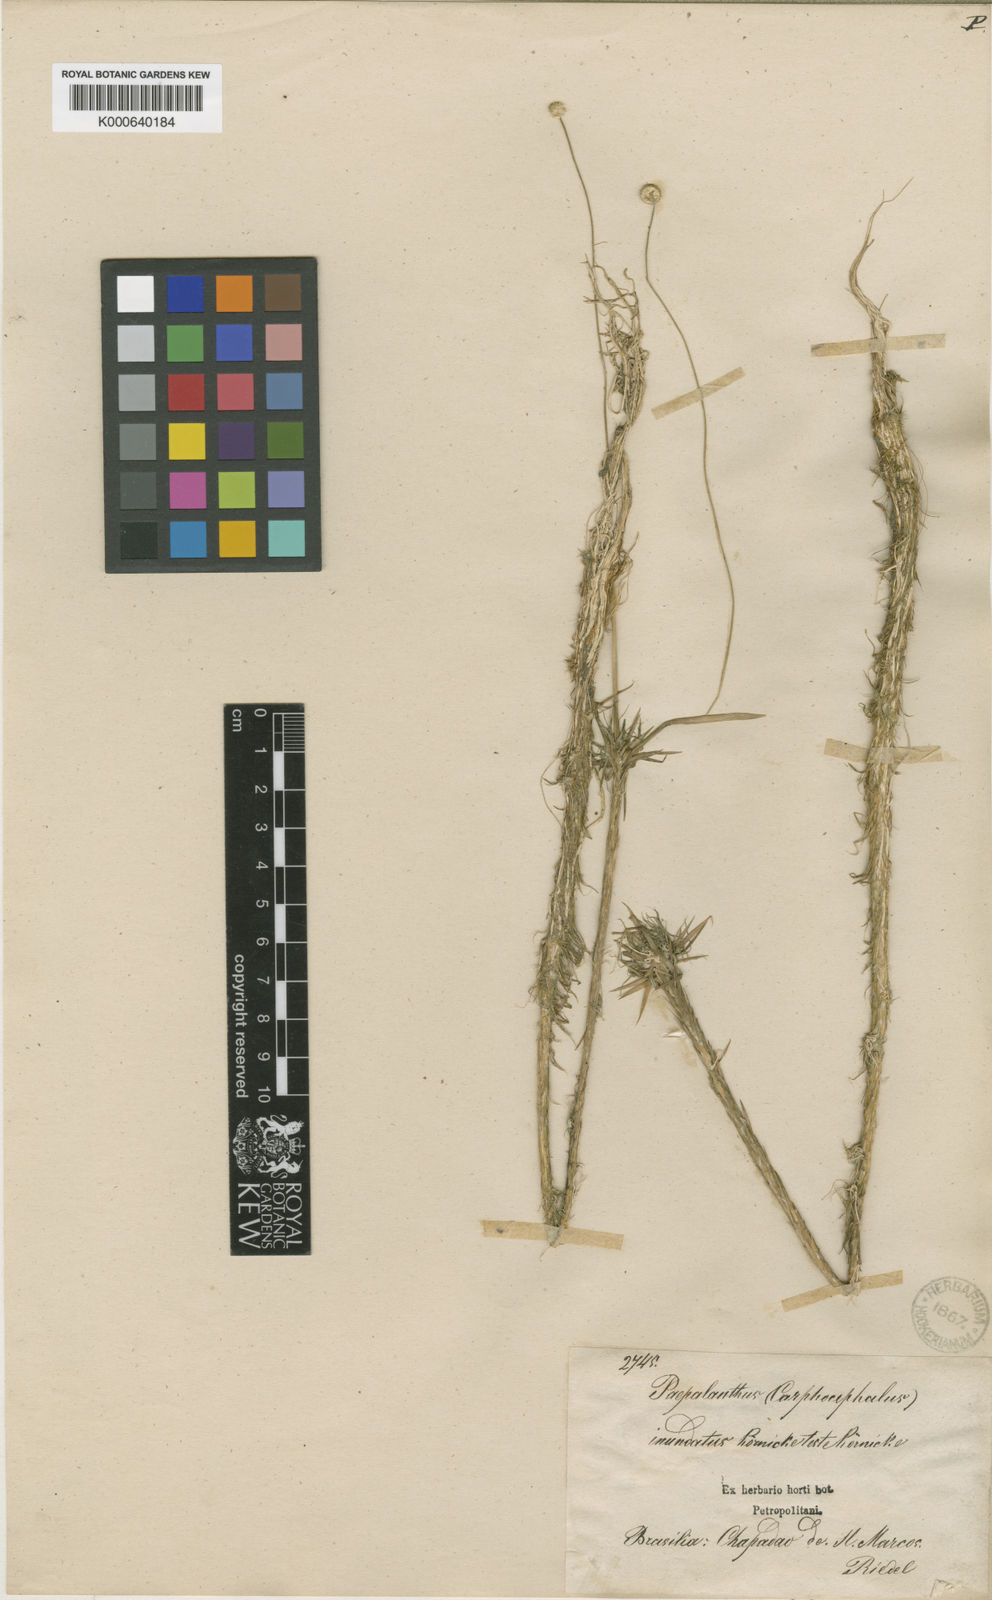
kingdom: Plantae
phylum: Tracheophyta
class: Liliopsida
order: Poales
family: Eriocaulaceae
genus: Syngonanthus
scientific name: Syngonanthus
